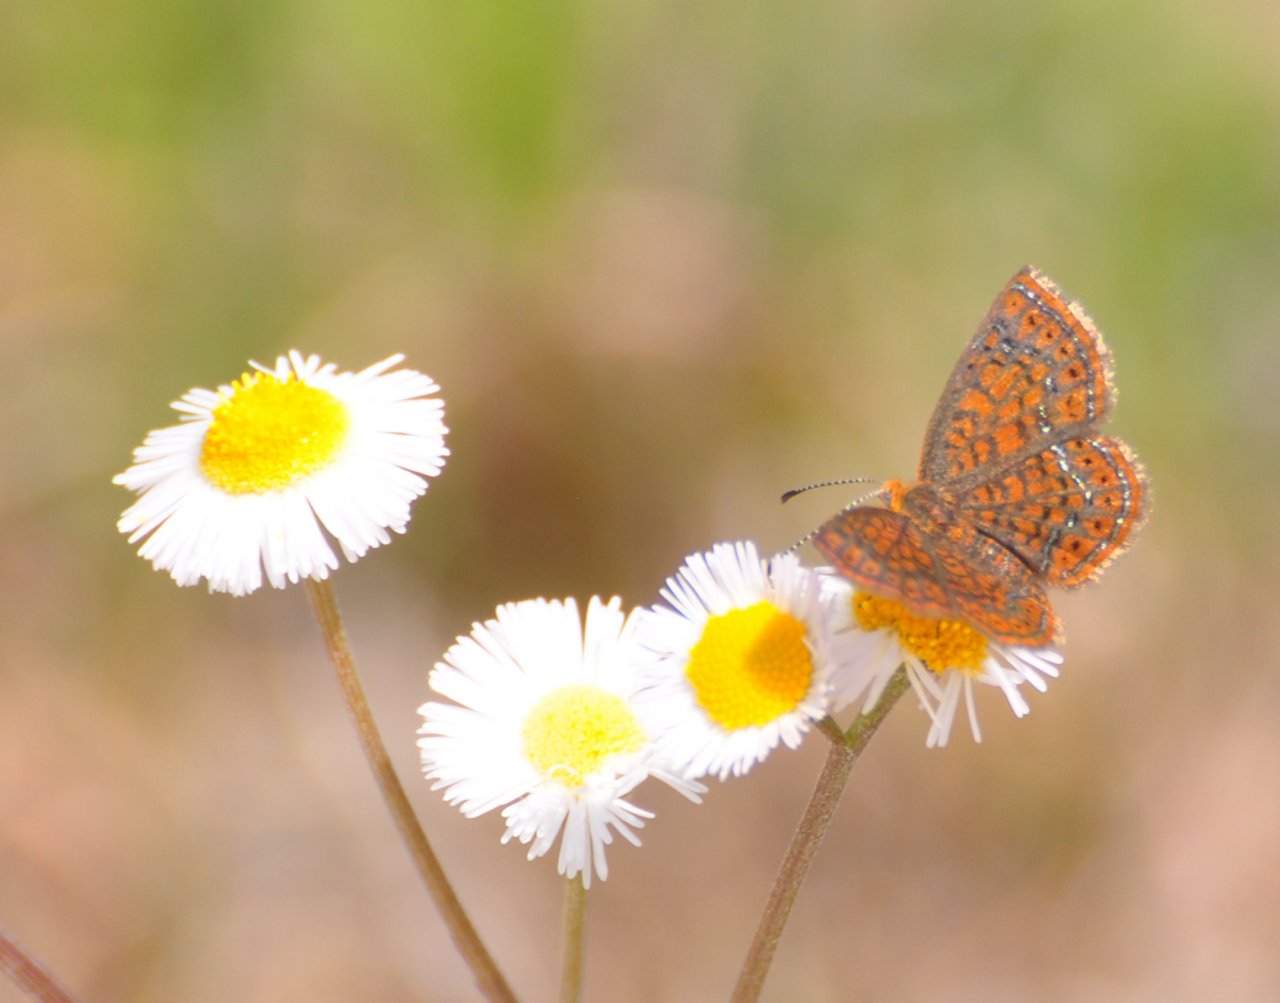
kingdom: Animalia
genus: Calephelis
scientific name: Calephelis virginiensis
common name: Little Metalmark
